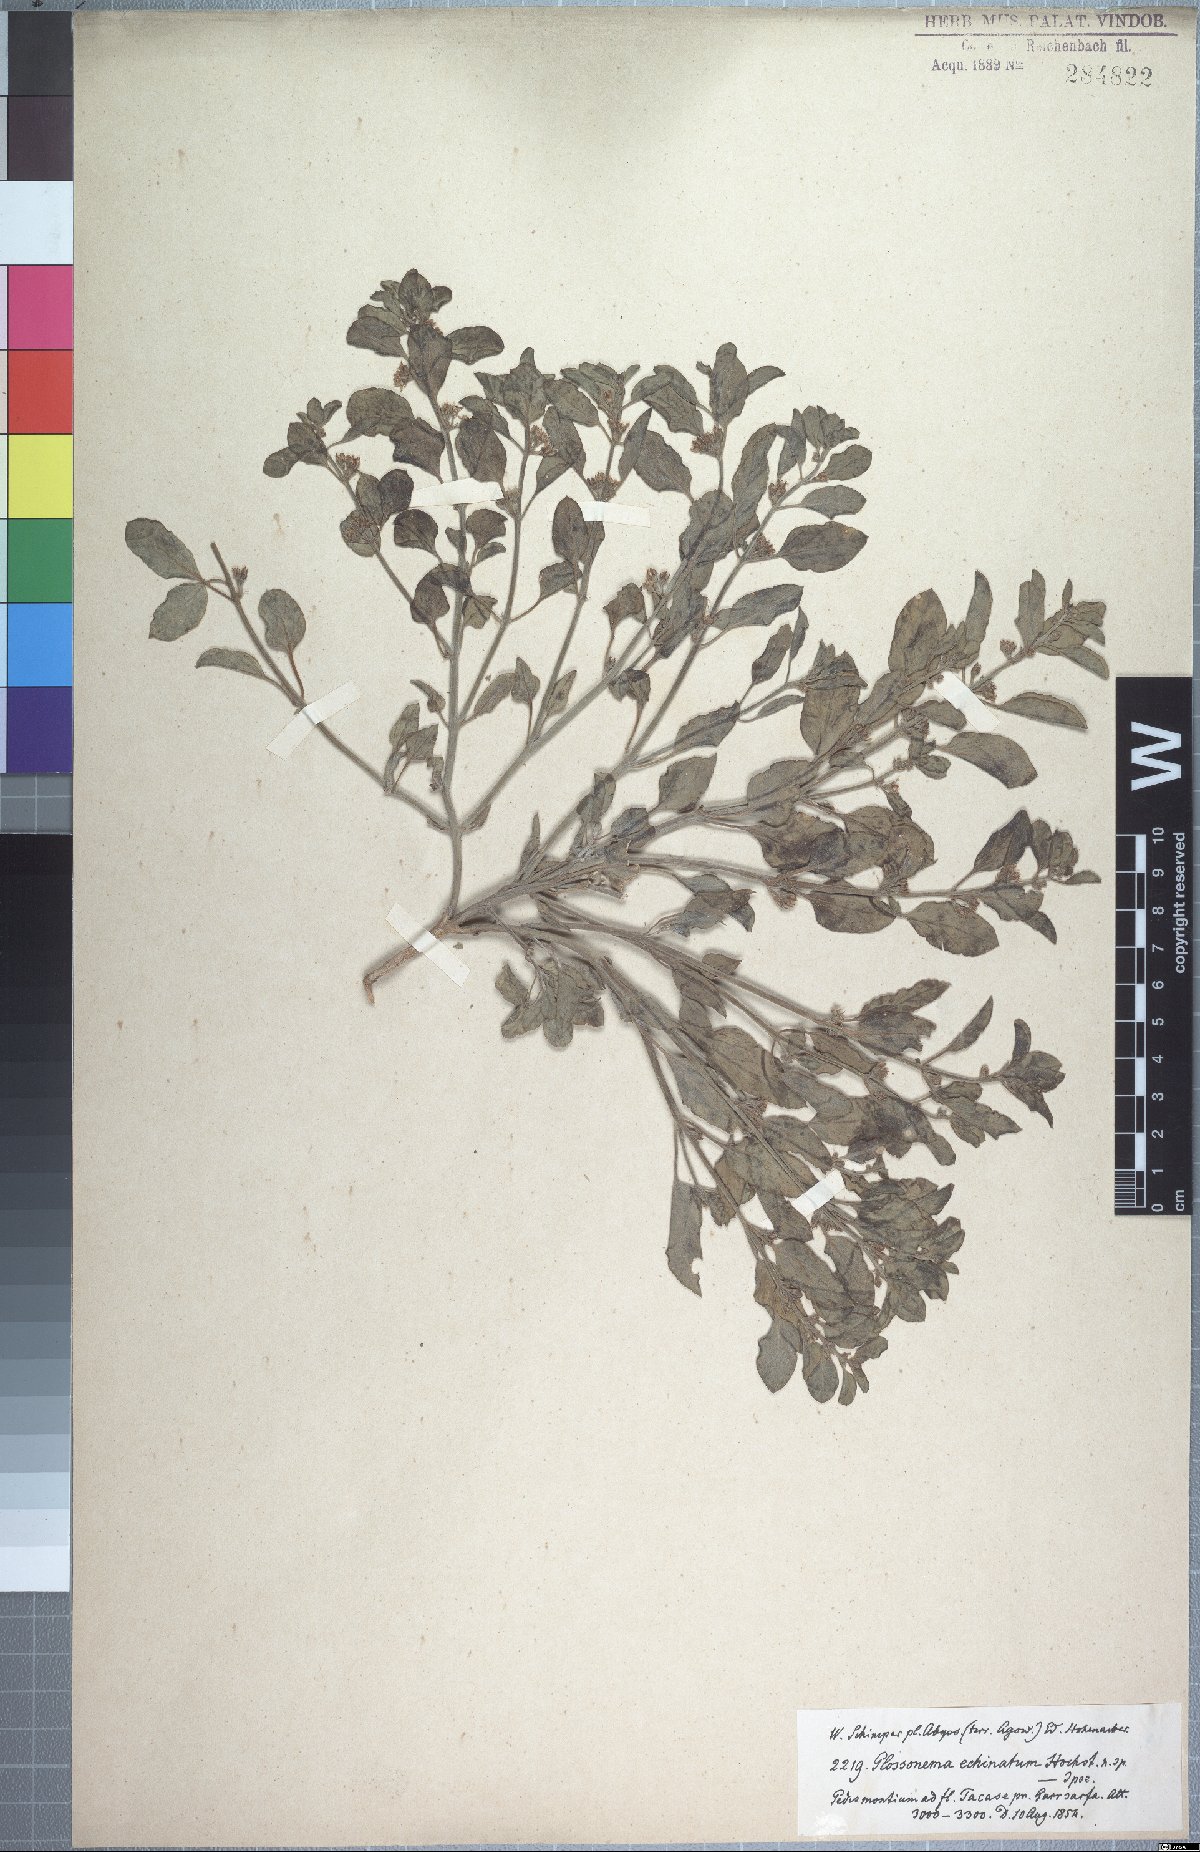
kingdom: Plantae
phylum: Tracheophyta
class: Magnoliopsida
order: Gentianales
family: Apocynaceae
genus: Cynanchum
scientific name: Cynanchum boveanum
